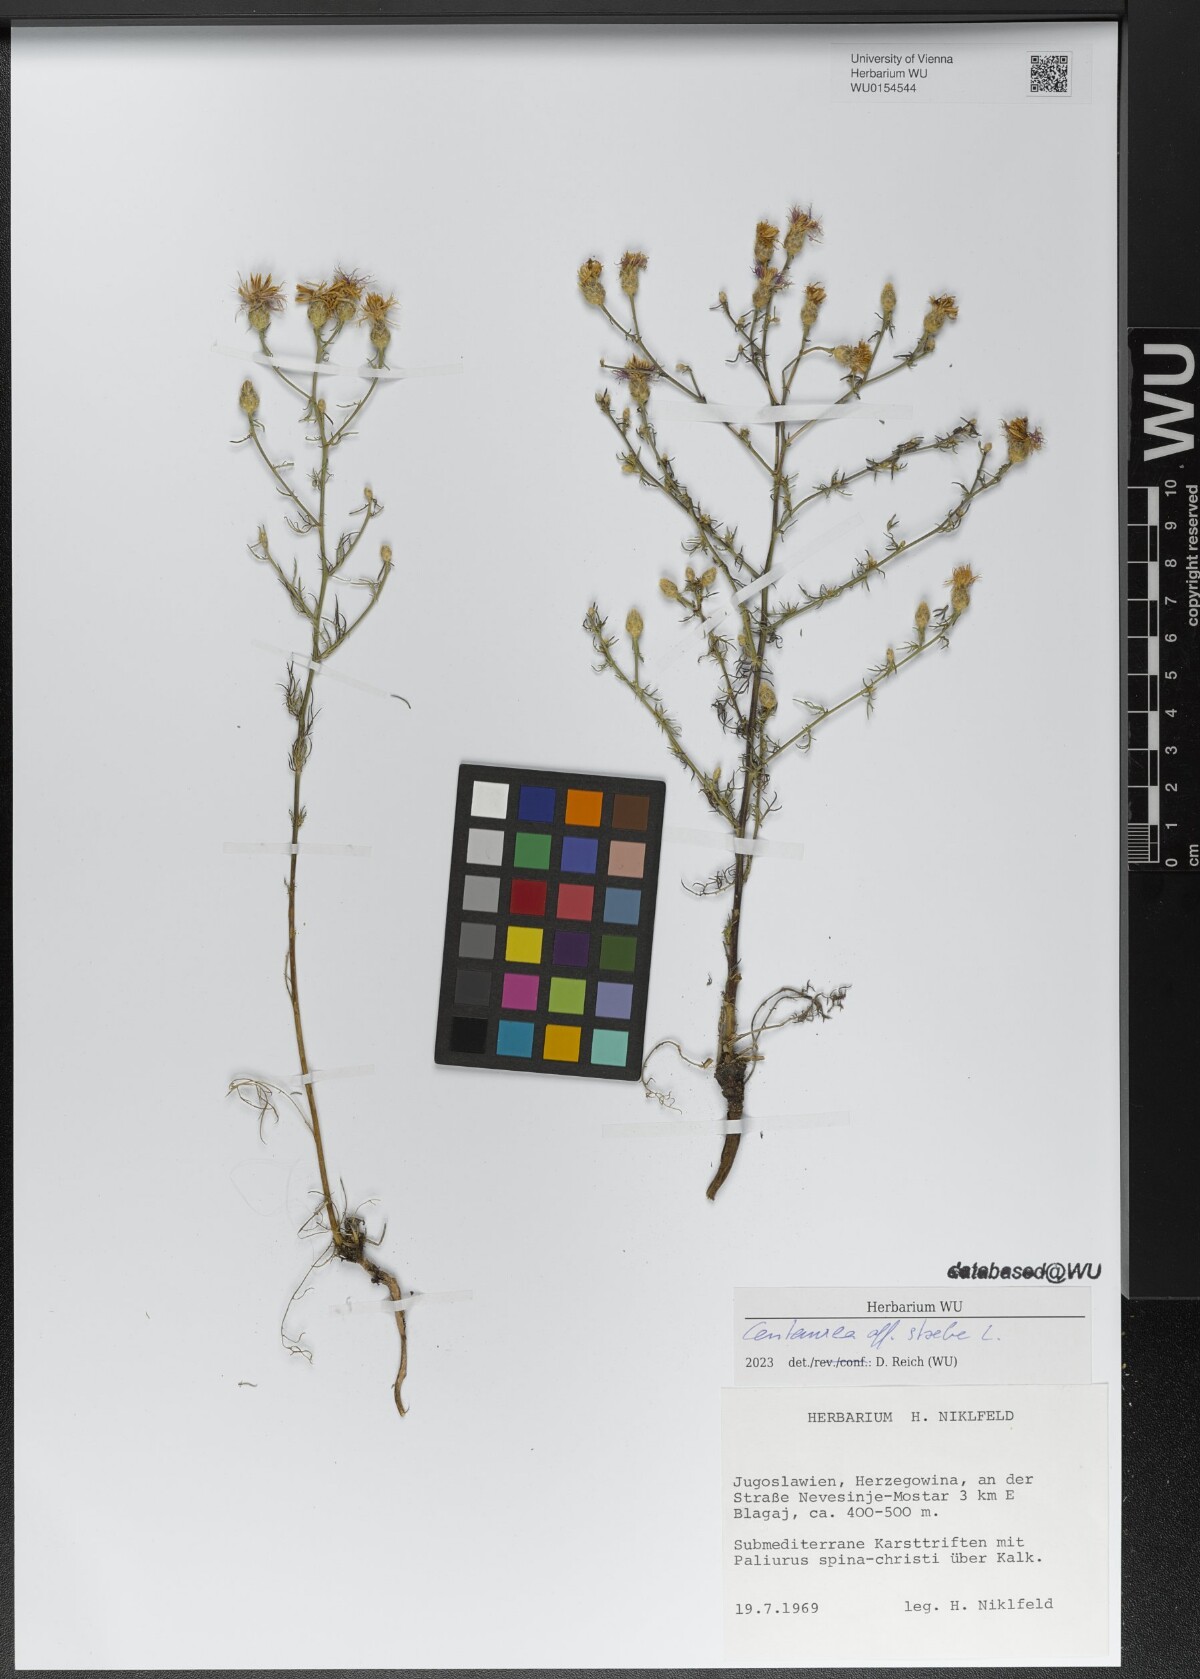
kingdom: Plantae
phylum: Tracheophyta
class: Magnoliopsida
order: Asterales
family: Asteraceae
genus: Centaurea
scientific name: Centaurea stoebe
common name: Spotted knapweed
